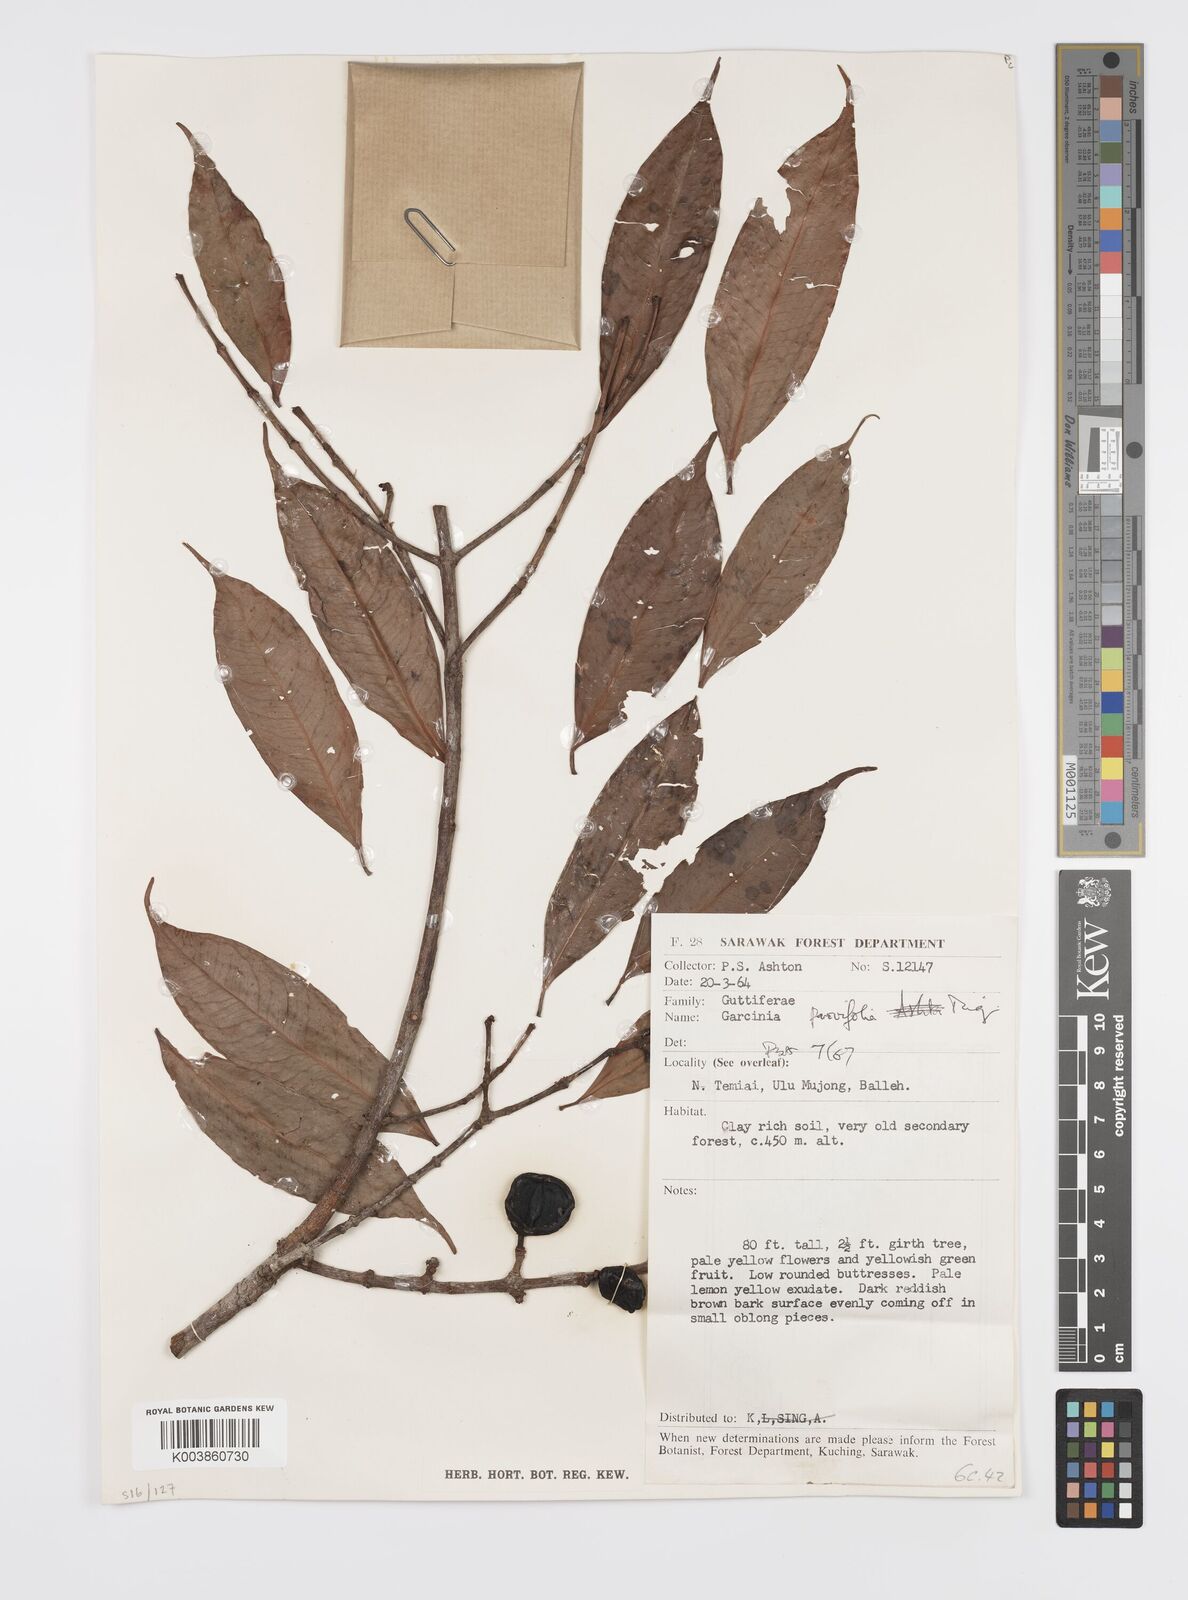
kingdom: Plantae
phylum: Tracheophyta
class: Magnoliopsida
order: Malpighiales
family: Clusiaceae
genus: Garcinia
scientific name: Garcinia parvifolia
